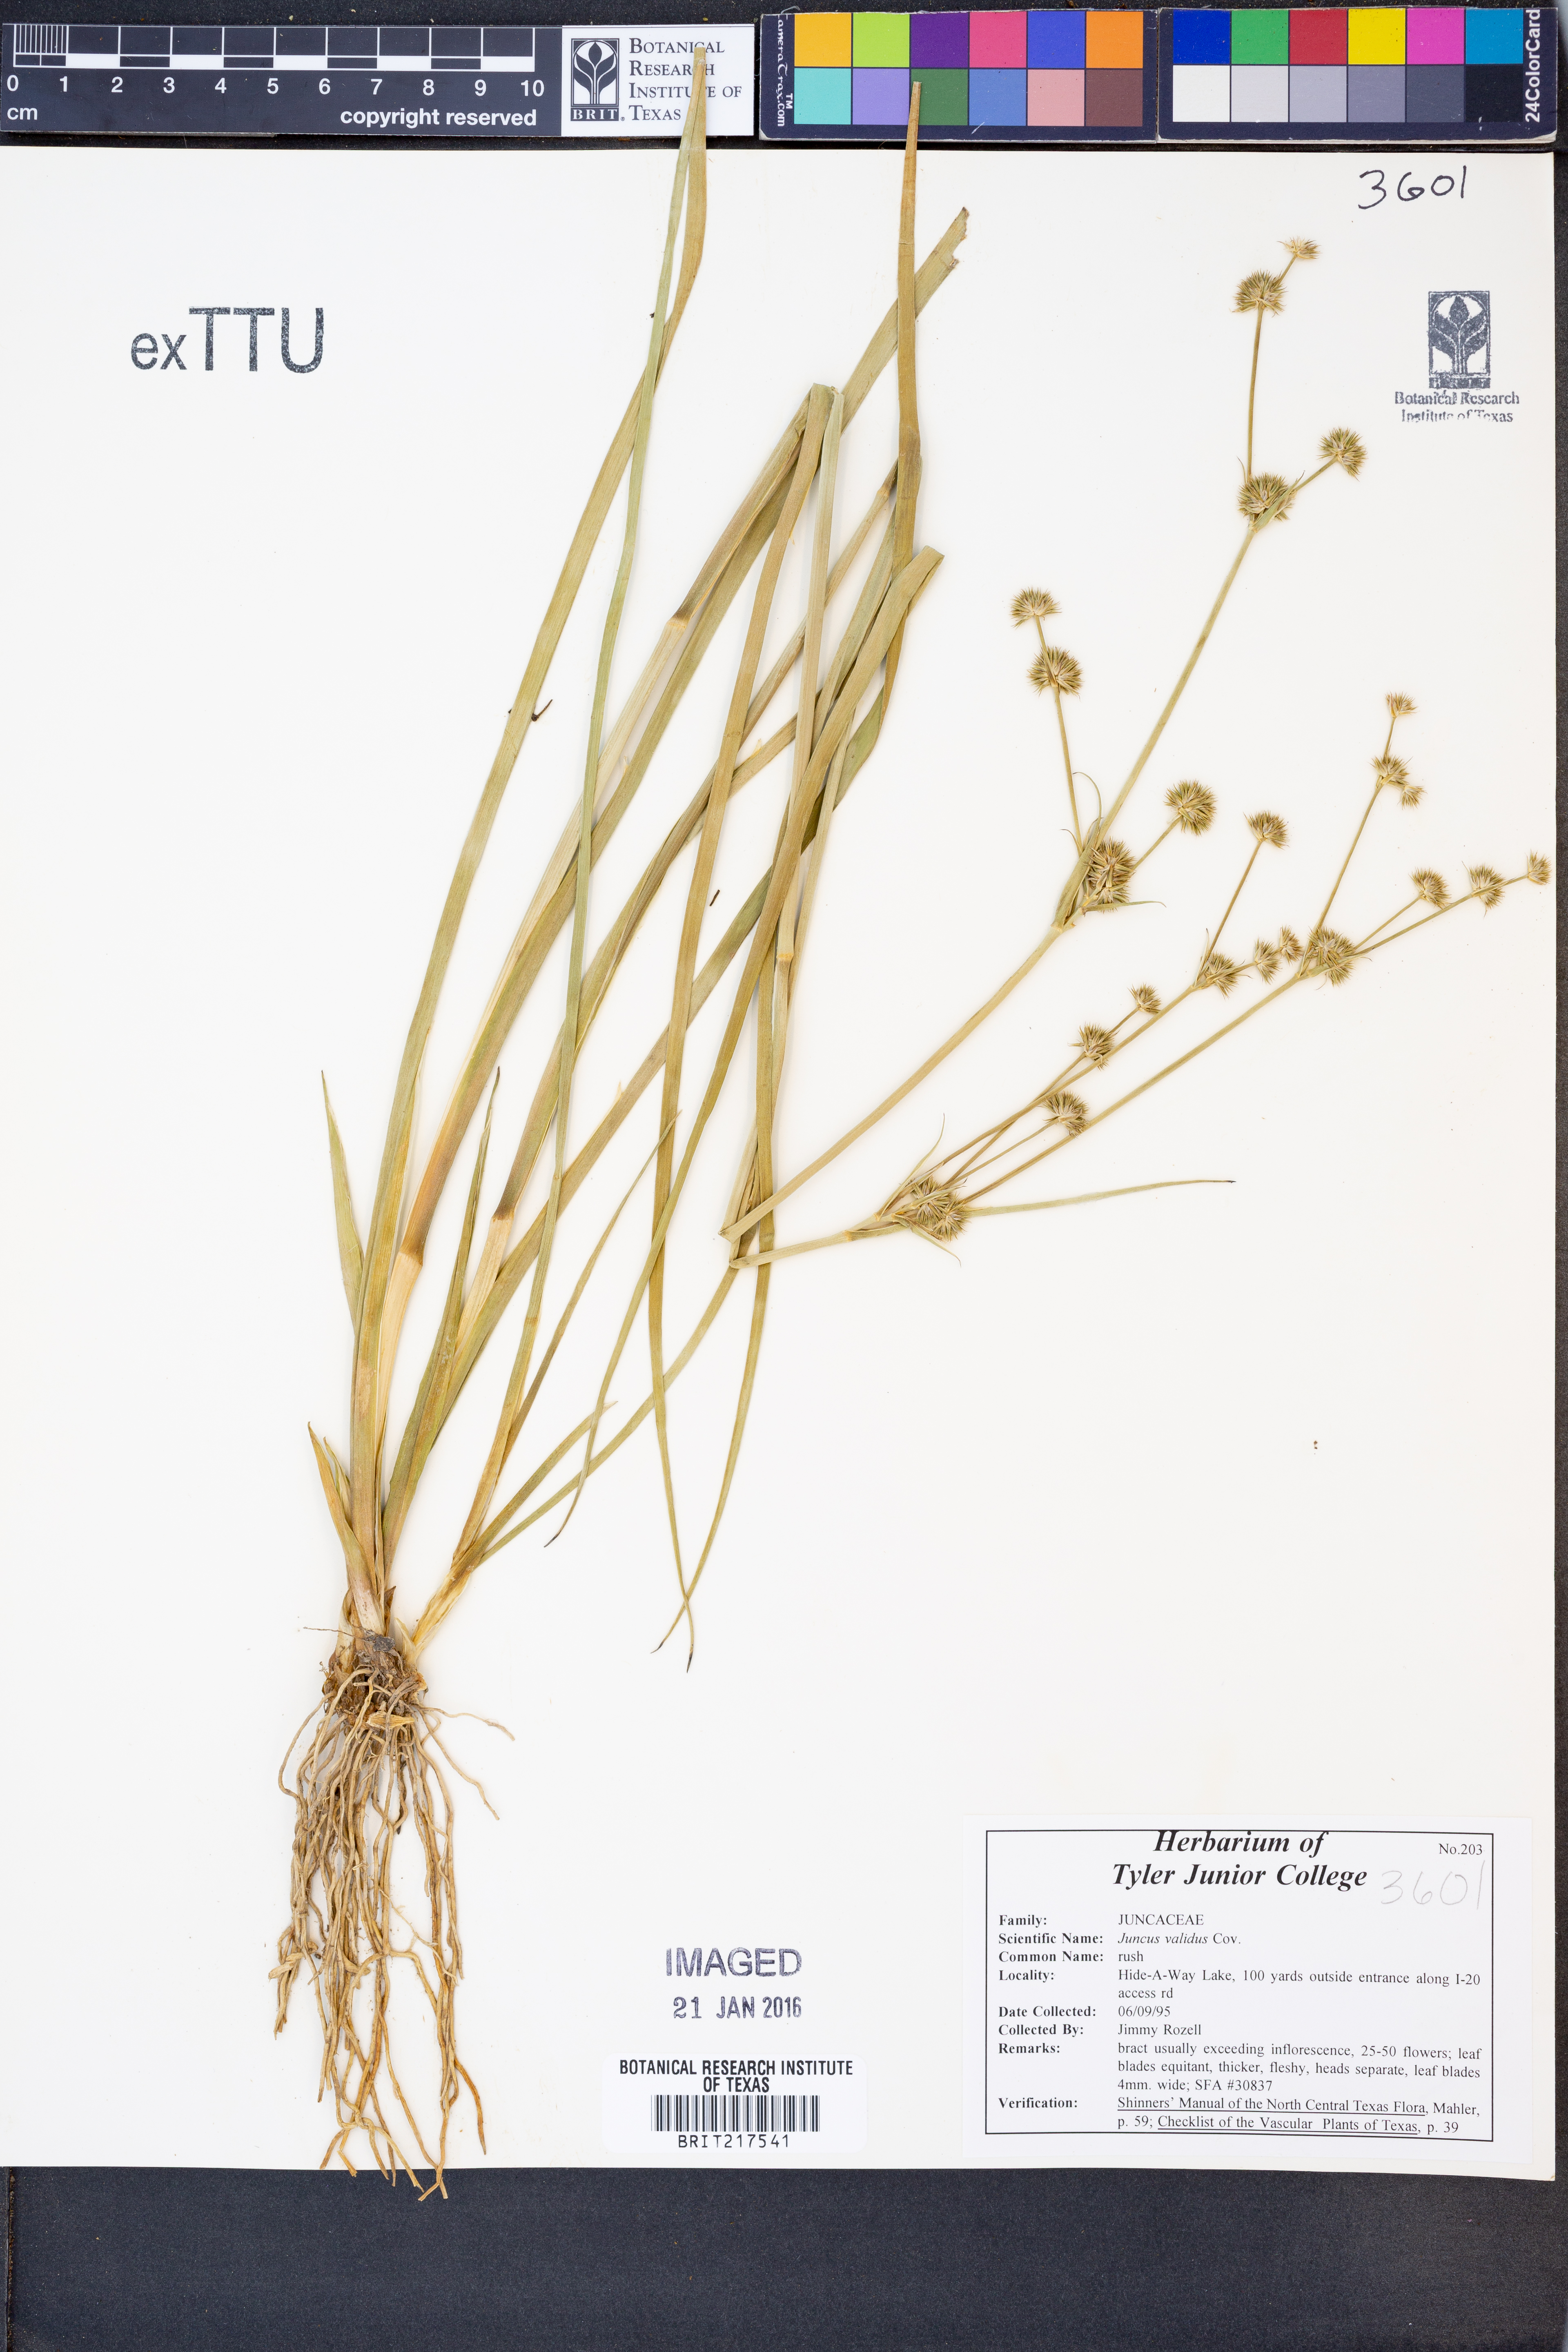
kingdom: Plantae
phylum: Tracheophyta
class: Liliopsida
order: Poales
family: Juncaceae
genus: Juncus
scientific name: Juncus validus
